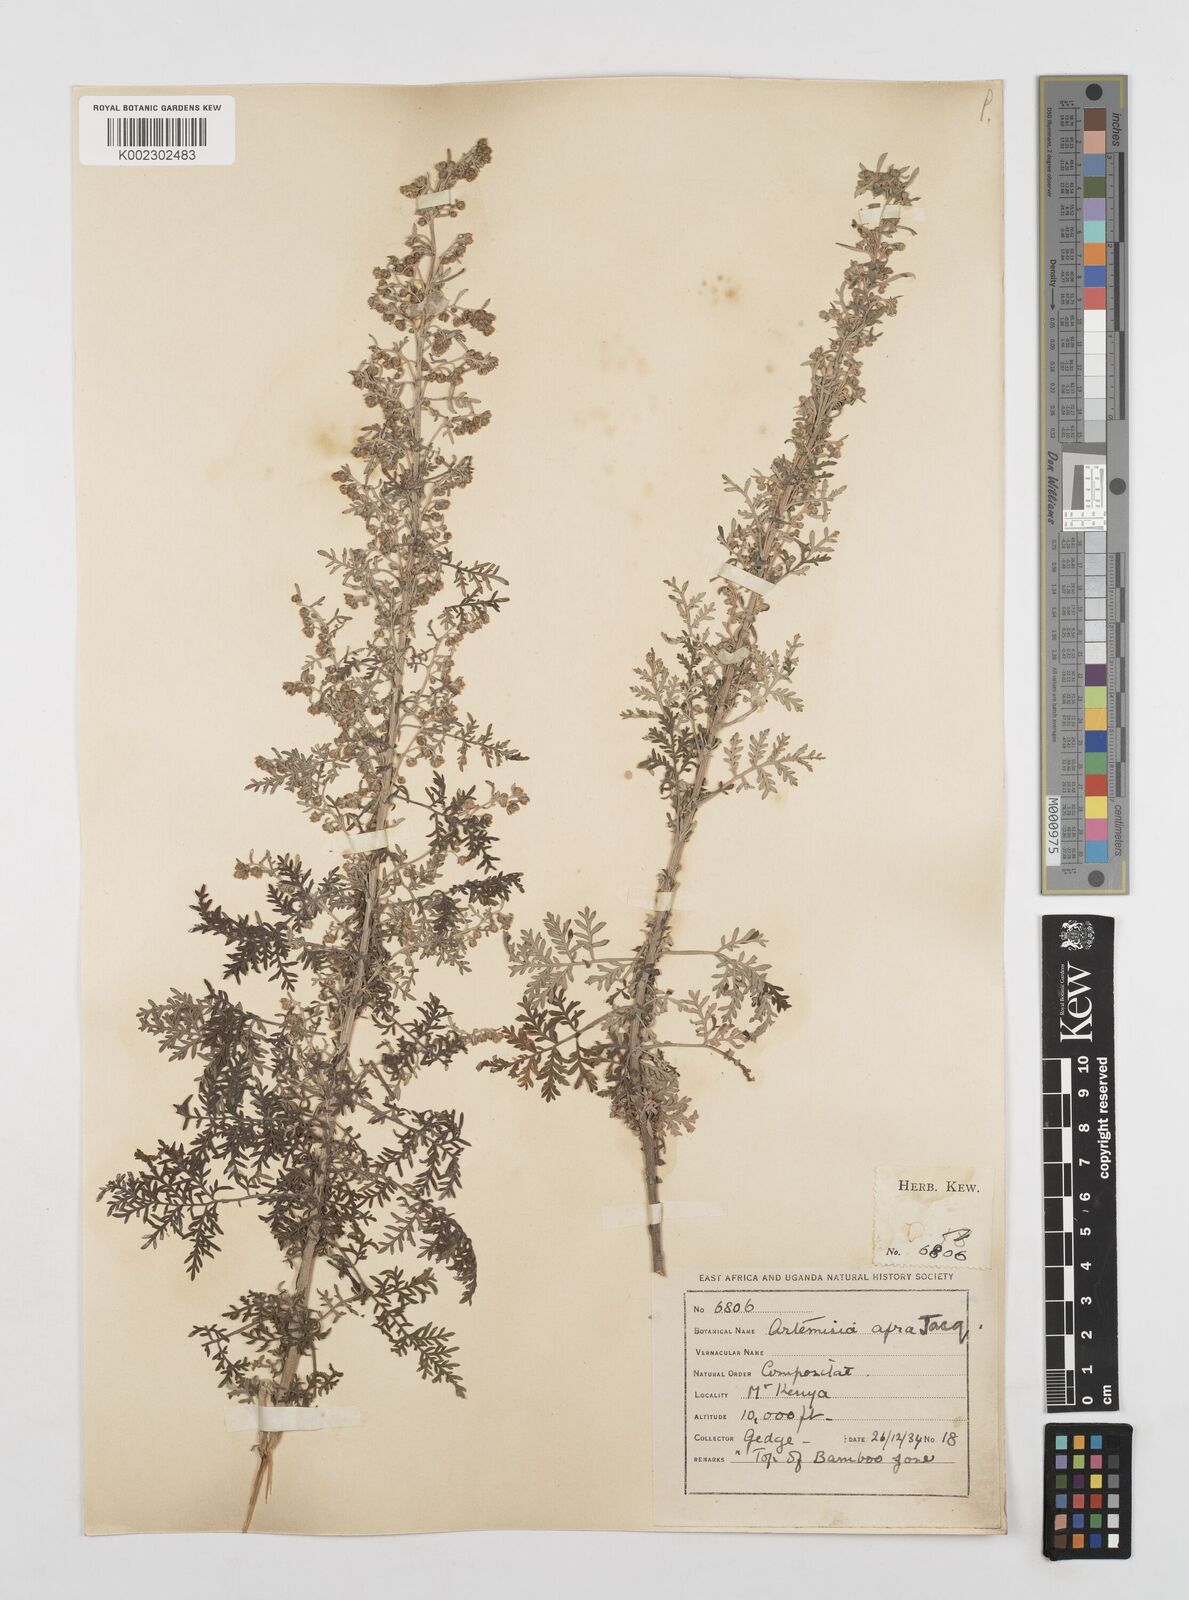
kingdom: Plantae
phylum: Tracheophyta
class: Magnoliopsida
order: Asterales
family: Asteraceae
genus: Artemisia
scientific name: Artemisia afra
